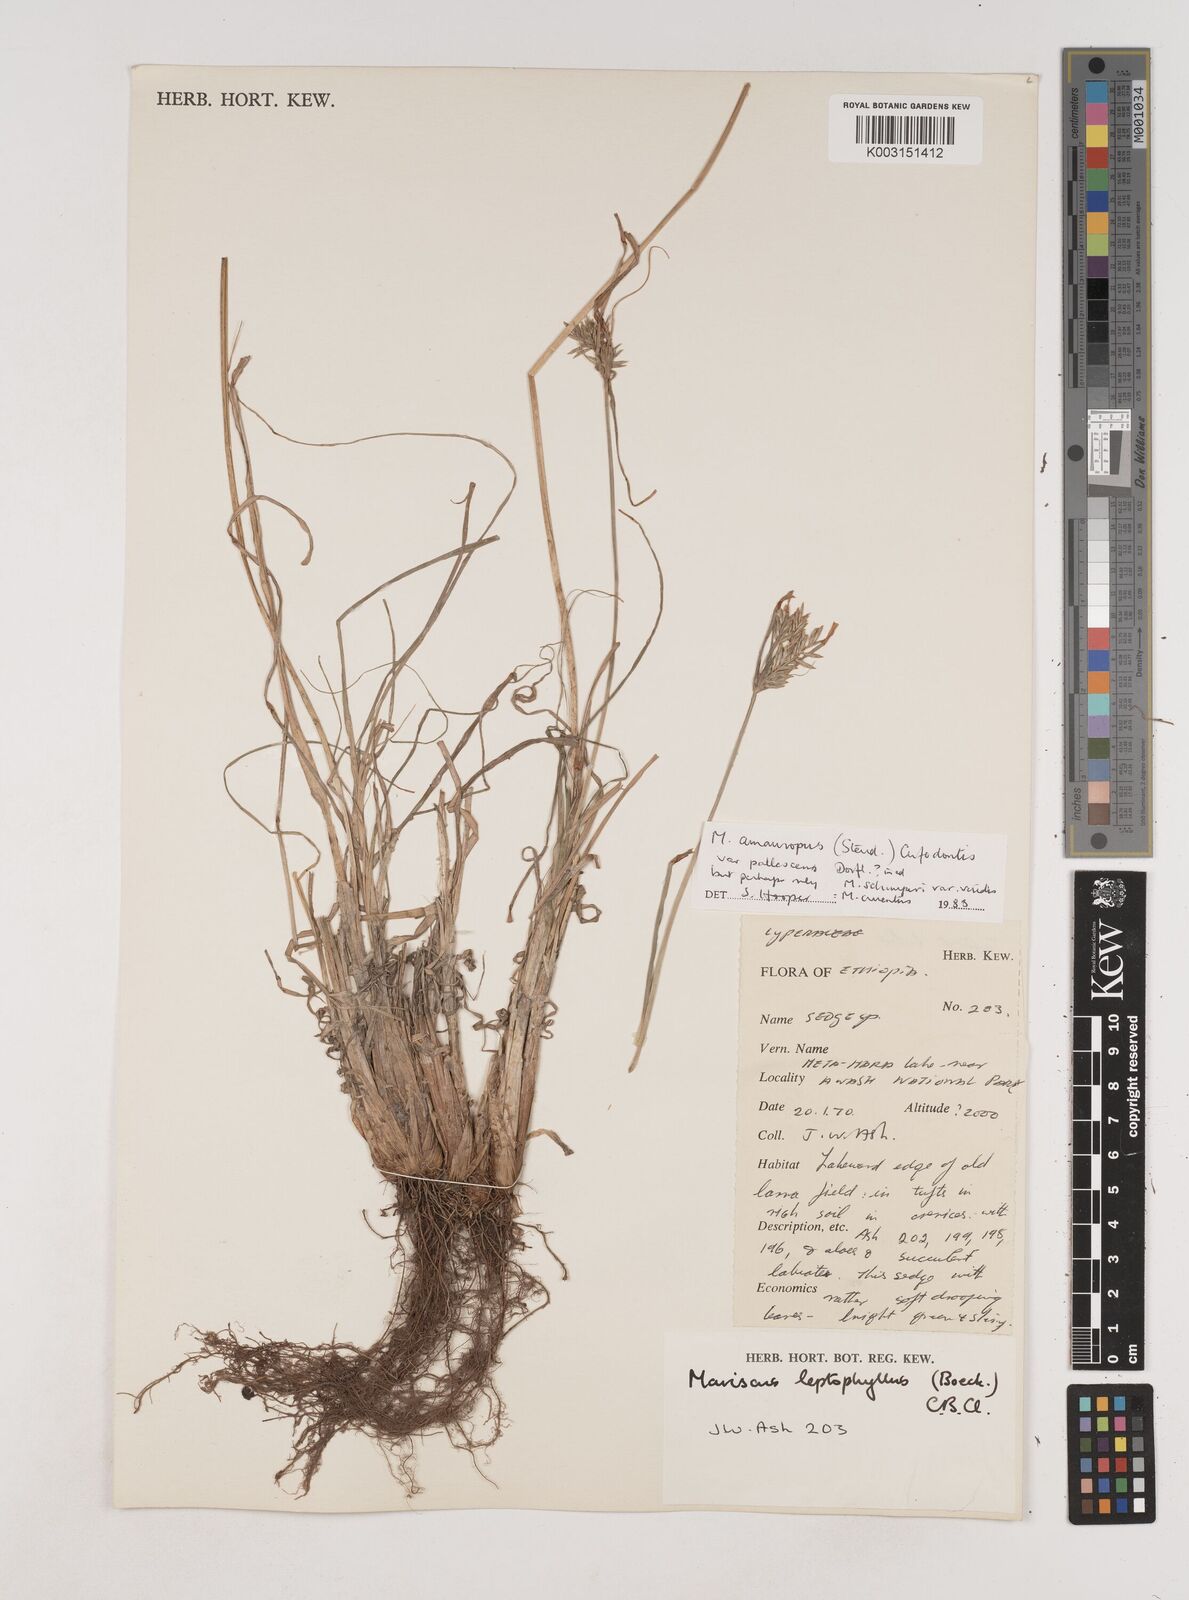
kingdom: Plantae
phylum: Tracheophyta
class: Liliopsida
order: Poales
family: Cyperaceae
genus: Cyperus
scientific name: Cyperus amauropus
